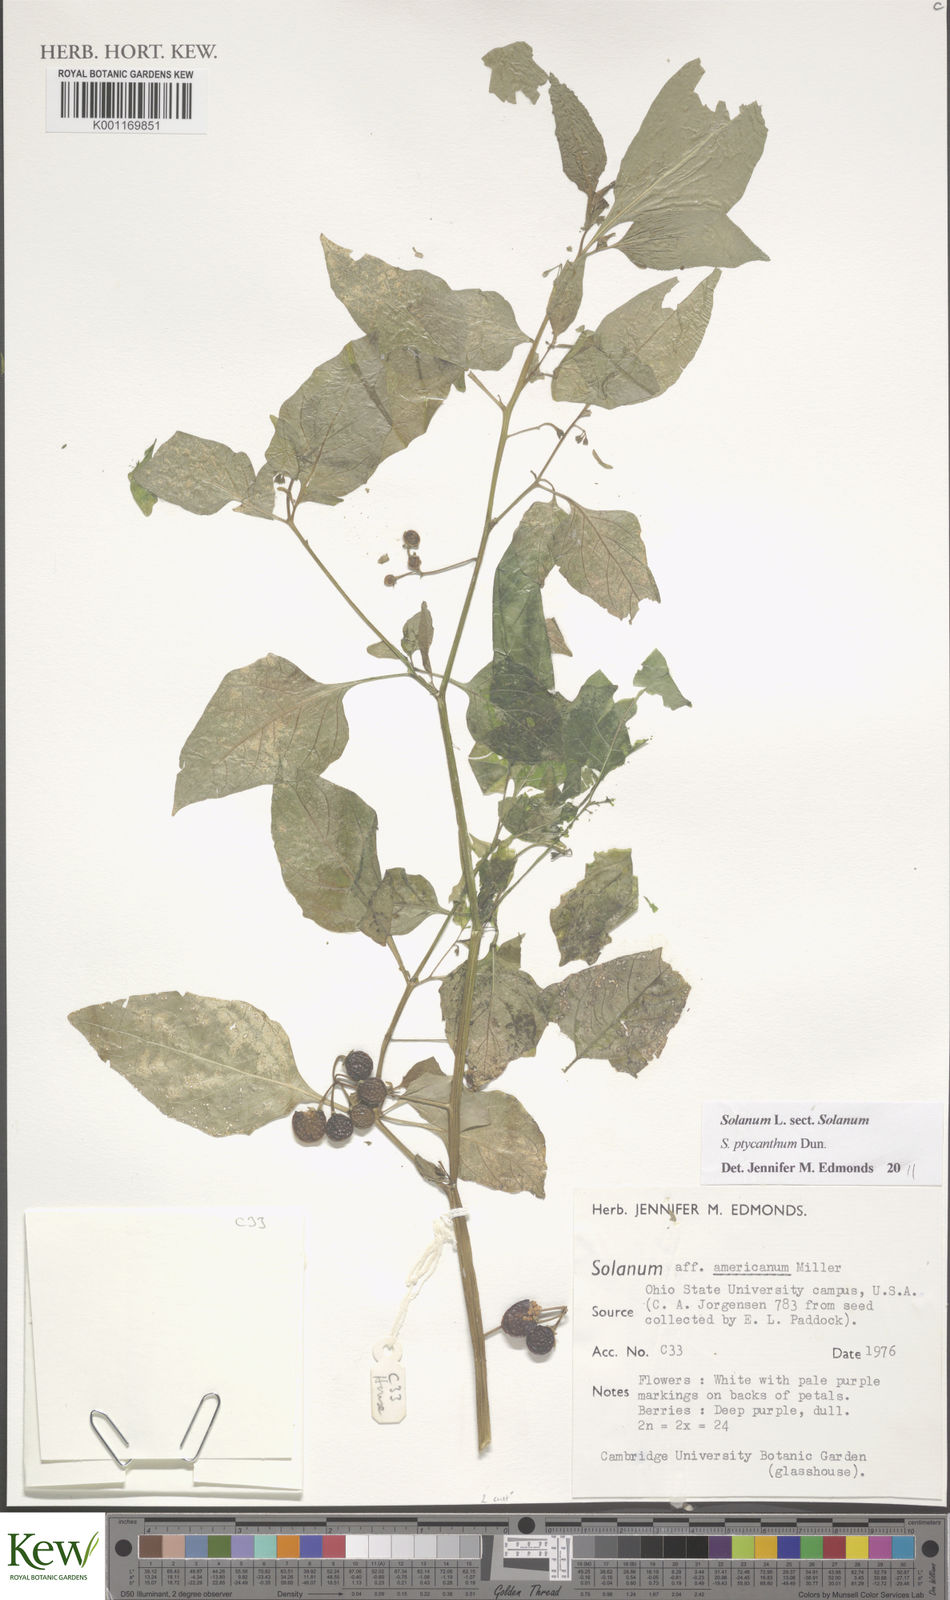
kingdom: Plantae
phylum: Tracheophyta
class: Magnoliopsida
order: Solanales
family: Solanaceae
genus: Solanum
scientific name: Solanum americanum
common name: American black nightshade
